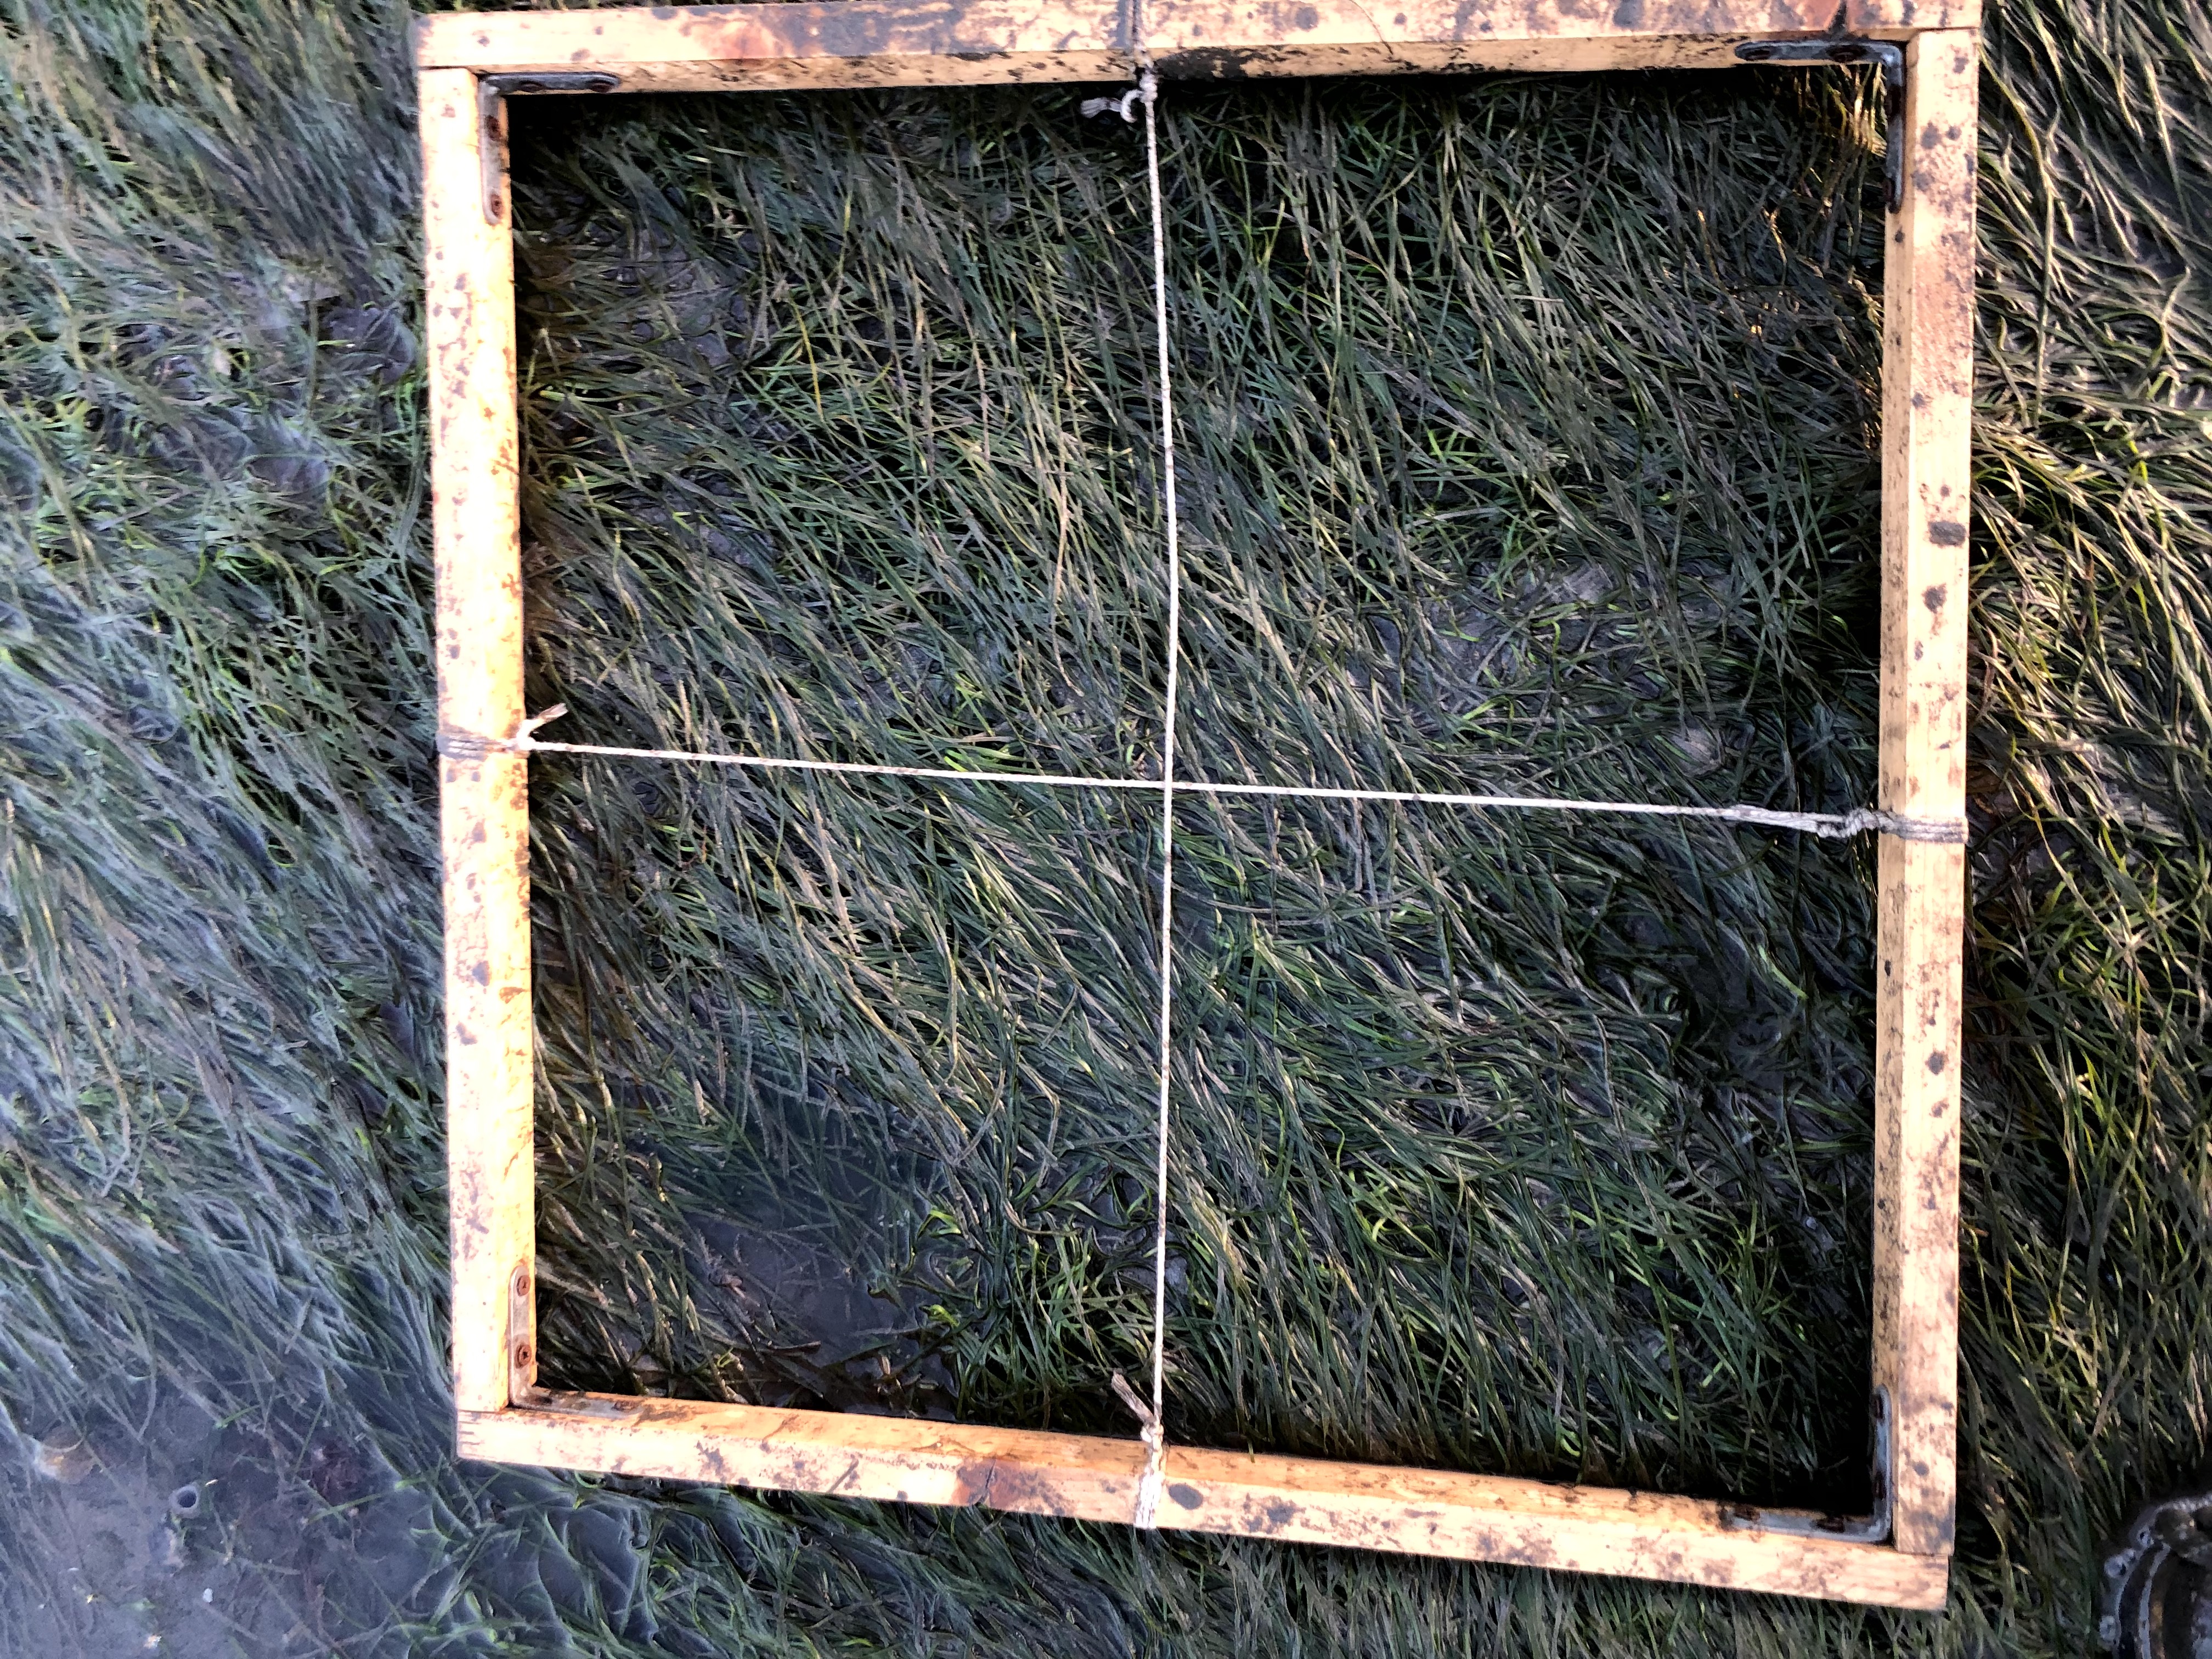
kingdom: Plantae
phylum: Tracheophyta
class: Liliopsida
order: Alismatales
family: Zosteraceae
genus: Zostera
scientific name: Zostera noltii
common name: Dwarf eelgrass
